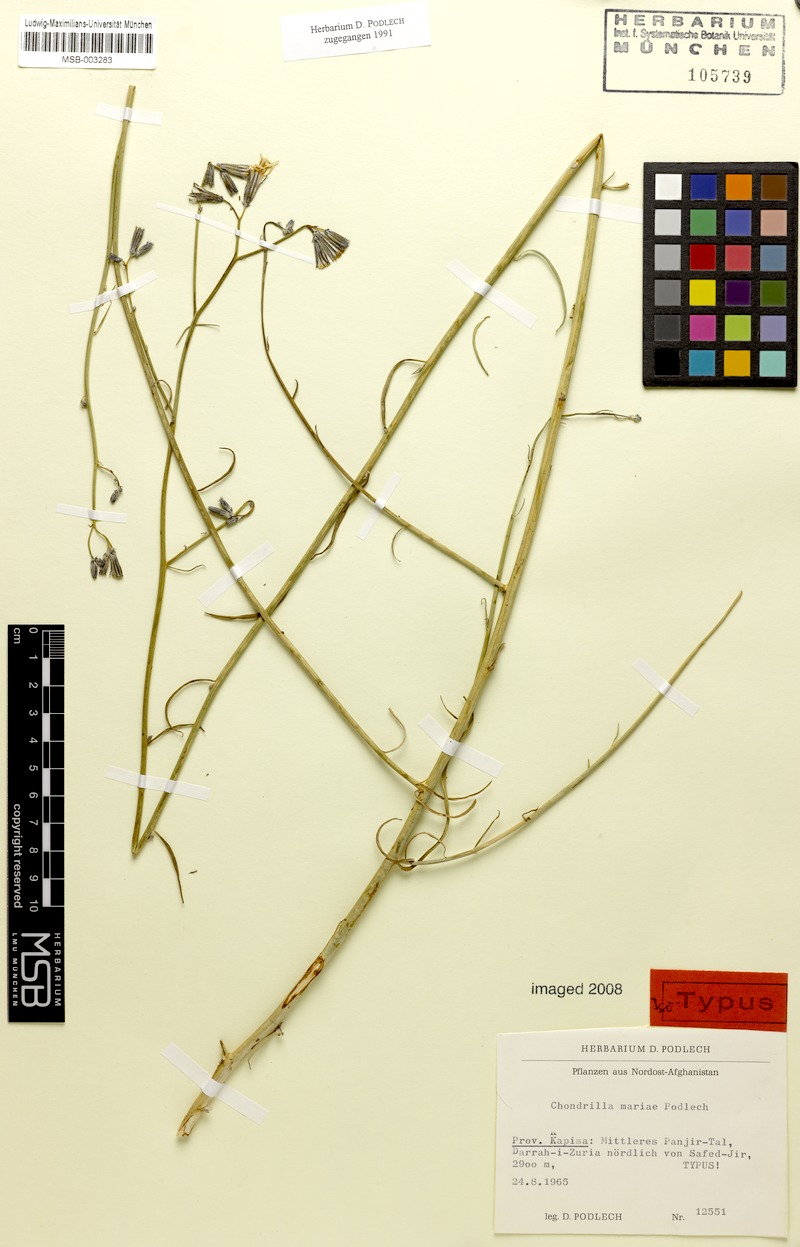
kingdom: Plantae
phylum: Tracheophyta
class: Magnoliopsida
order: Asterales
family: Asteraceae
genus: Chondrilla
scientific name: Chondrilla mariae
